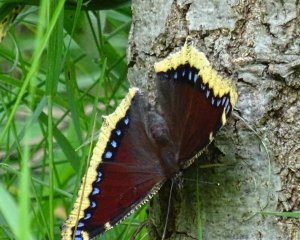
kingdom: Animalia
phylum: Arthropoda
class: Insecta
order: Lepidoptera
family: Nymphalidae
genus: Nymphalis
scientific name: Nymphalis antiopa
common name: Mourning Cloak
